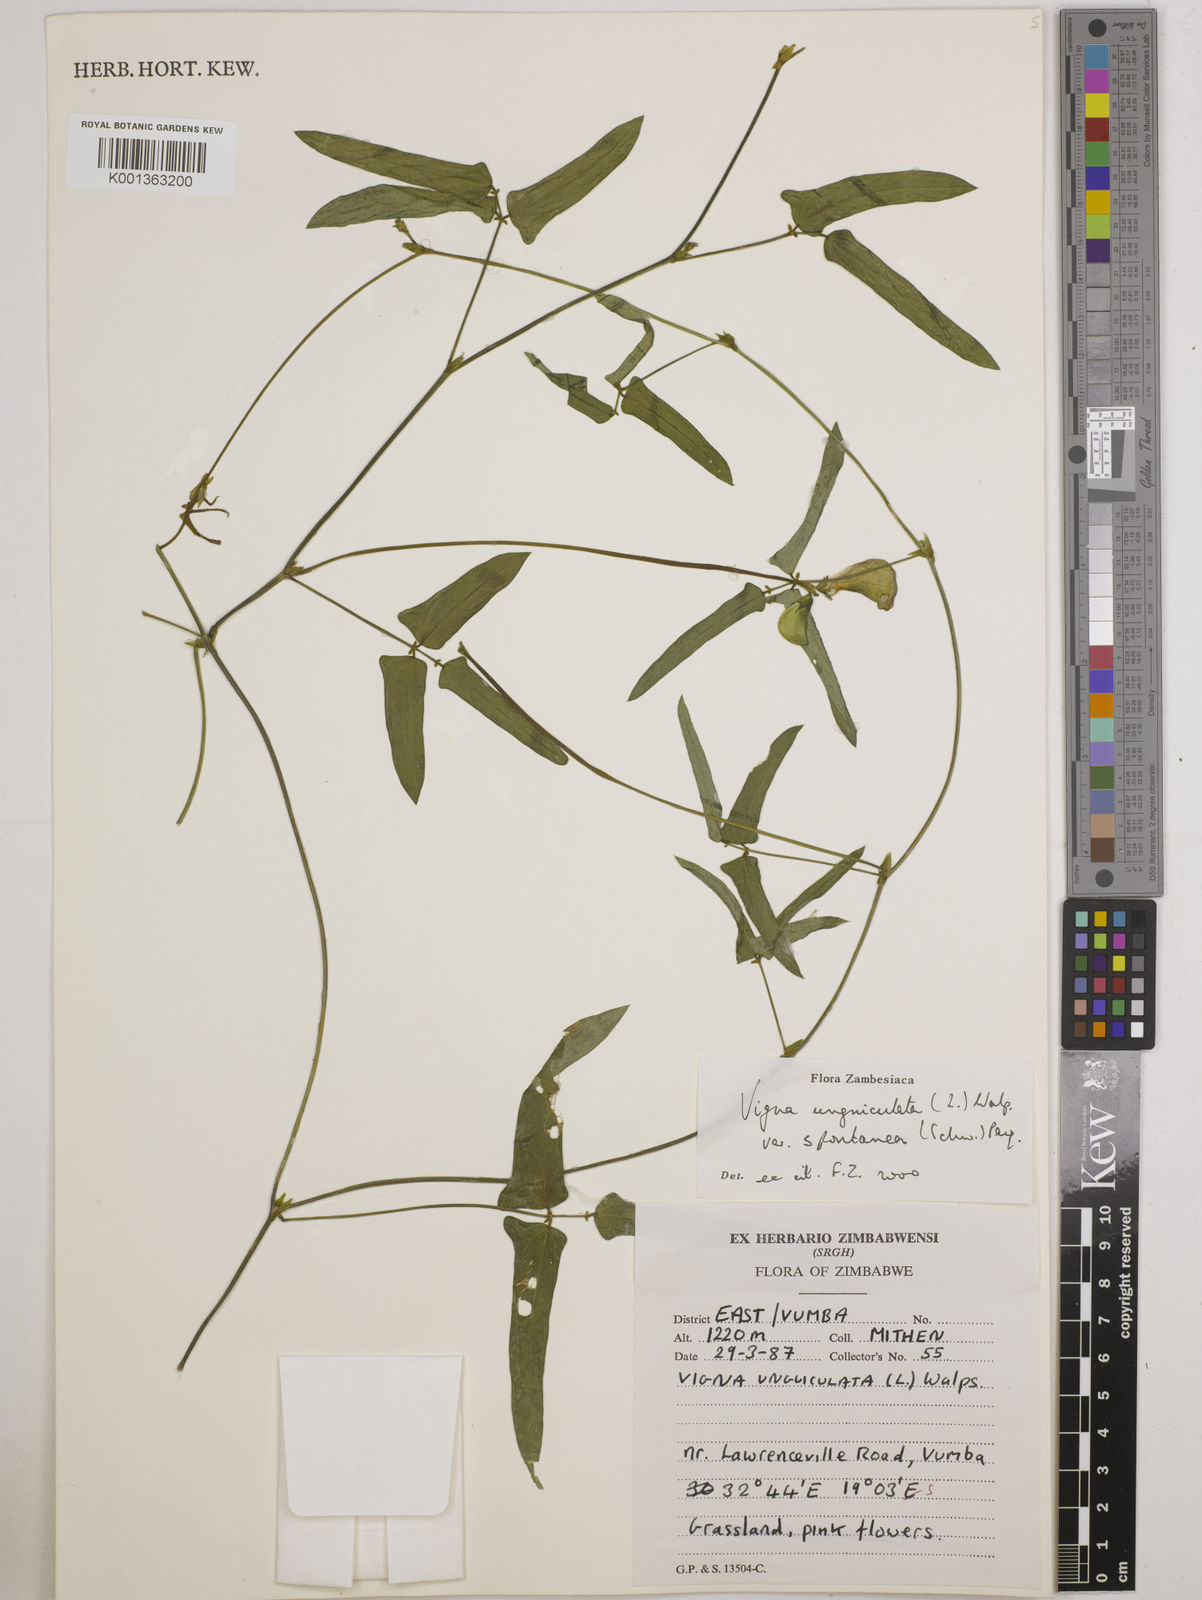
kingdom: Plantae
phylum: Tracheophyta
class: Magnoliopsida
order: Fabales
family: Fabaceae
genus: Vigna
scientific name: Vigna unguiculata
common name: Cowpea
